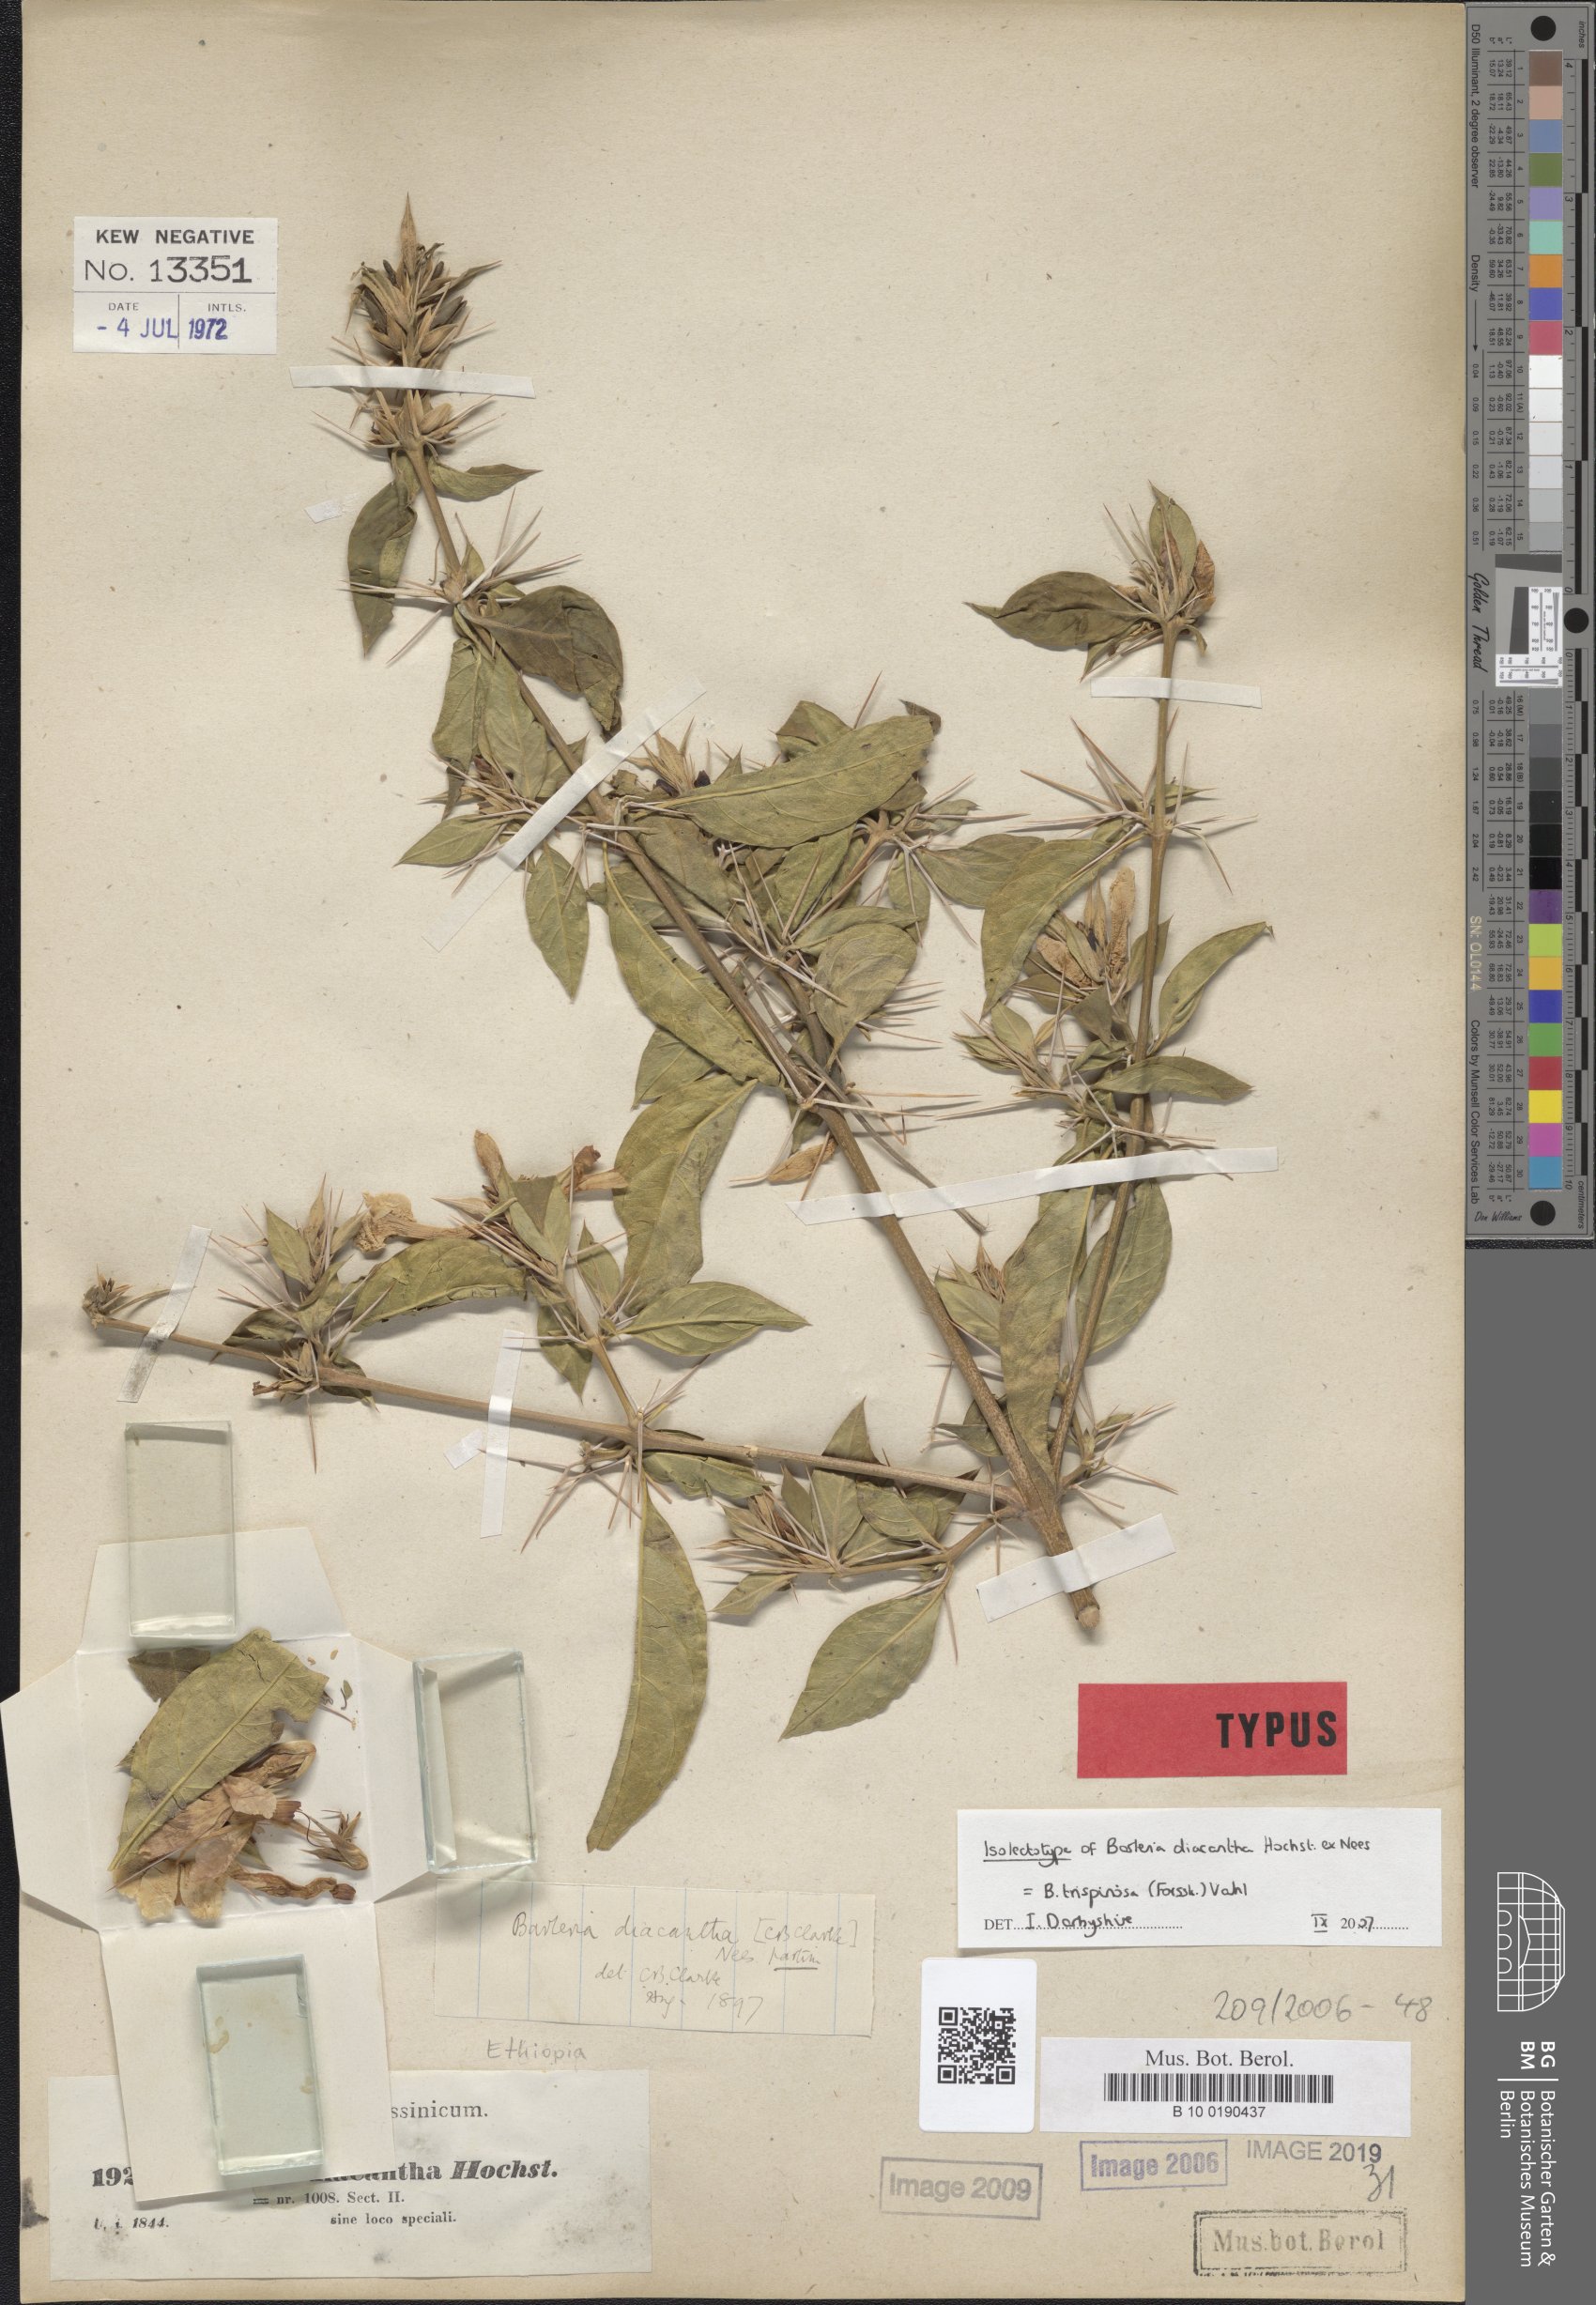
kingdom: Plantae
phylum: Tracheophyta
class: Magnoliopsida
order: Lamiales
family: Acanthaceae
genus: Barleria
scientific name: Barleria trispinosa
